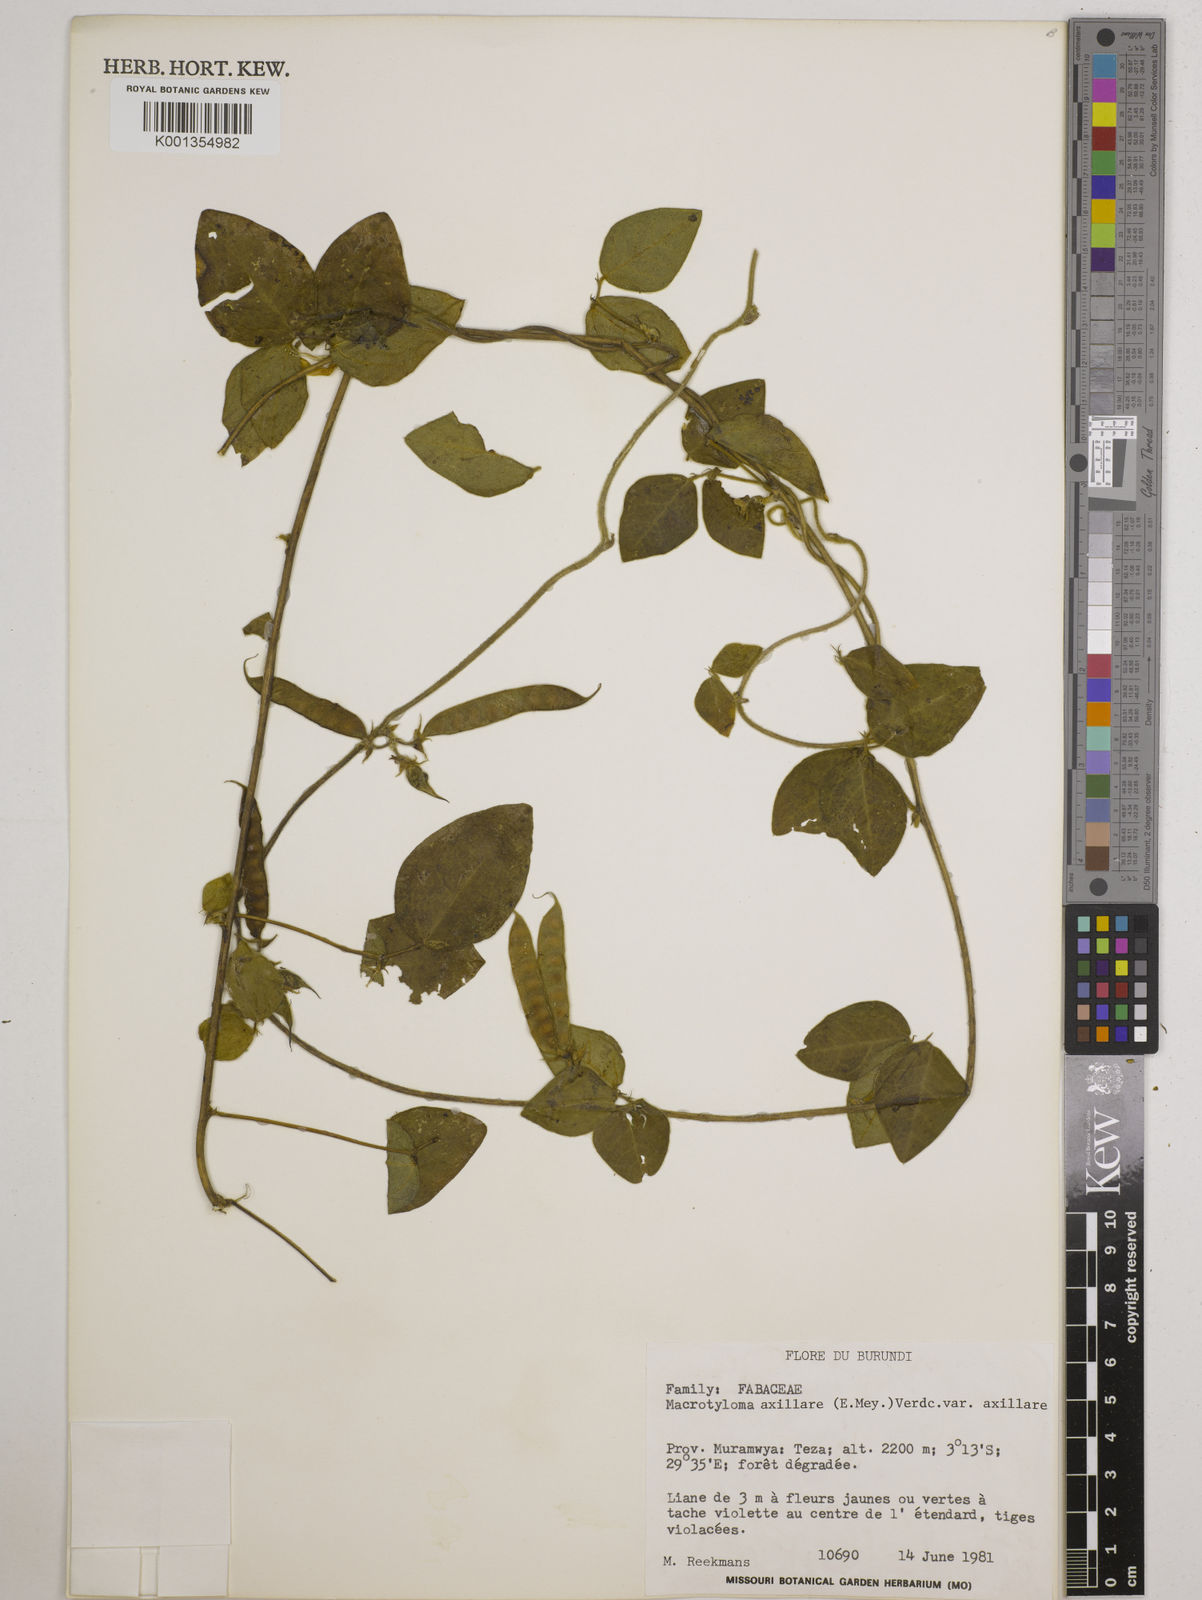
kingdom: Plantae
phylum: Tracheophyta
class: Magnoliopsida
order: Fabales
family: Fabaceae
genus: Macrotyloma
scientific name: Macrotyloma
